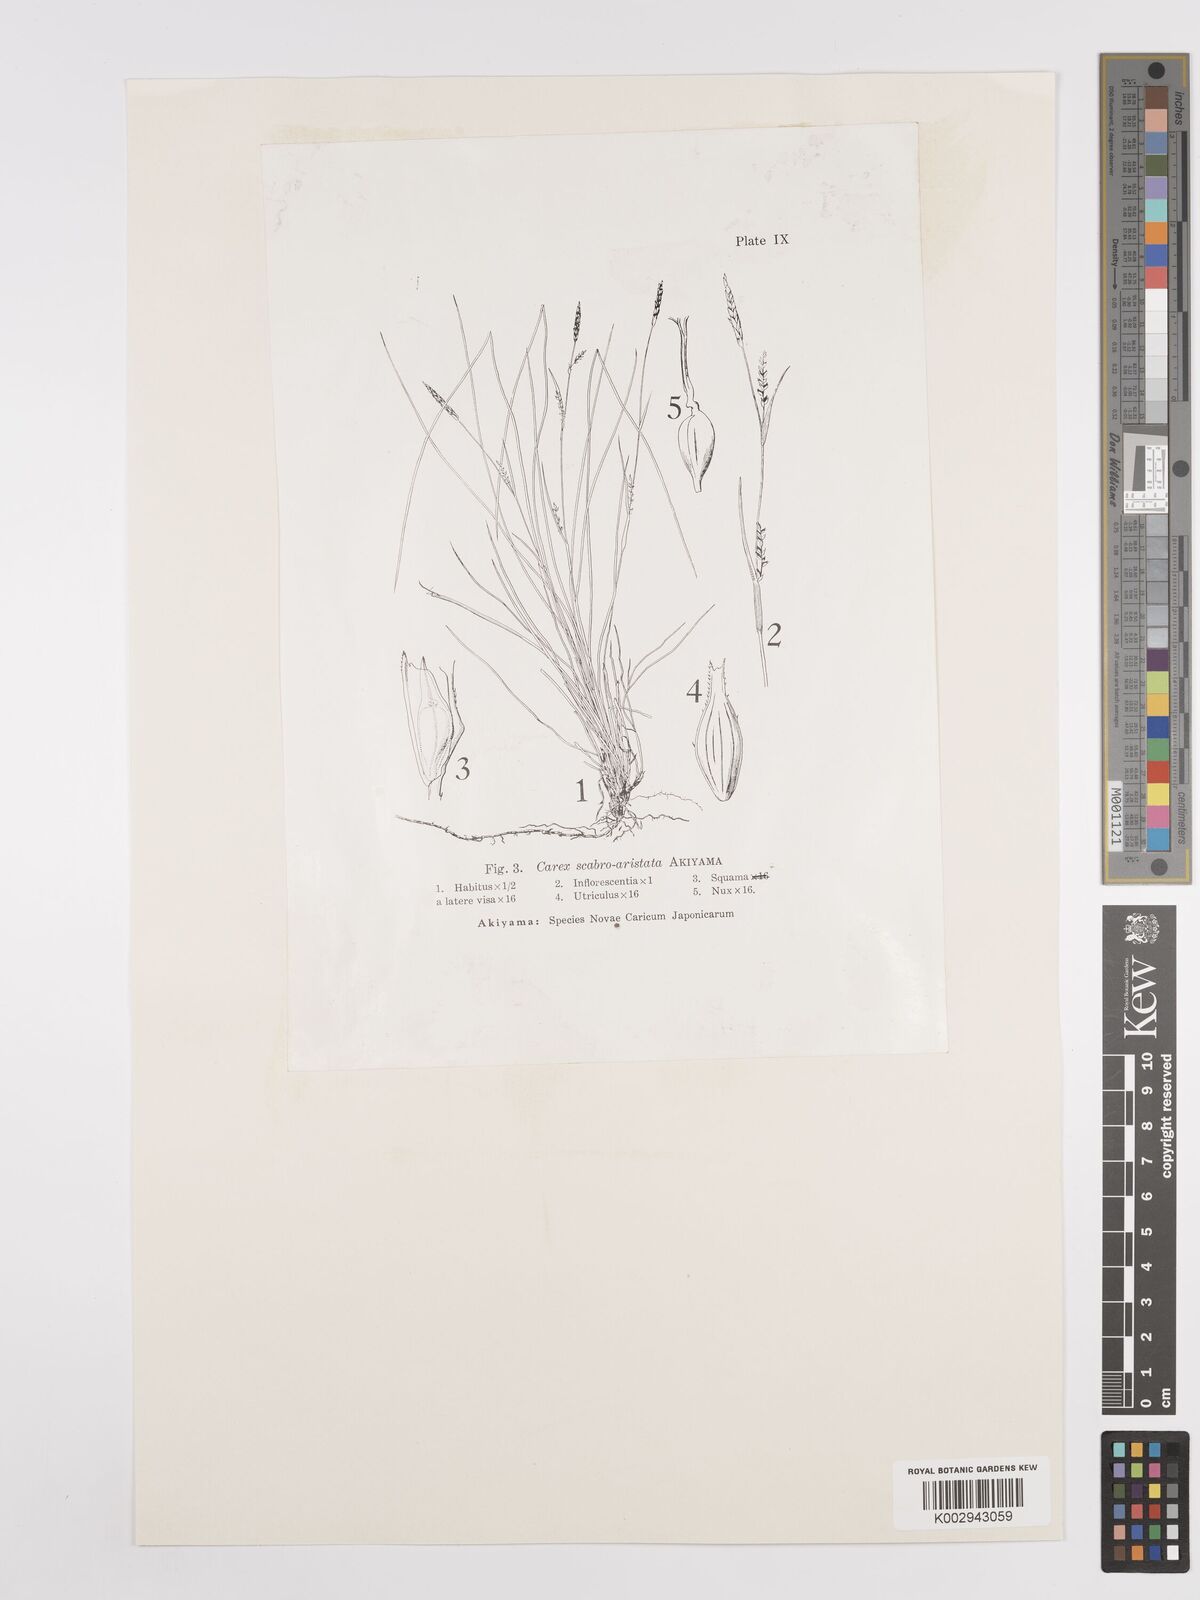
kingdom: Plantae
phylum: Tracheophyta
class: Liliopsida
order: Poales
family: Cyperaceae
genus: Carex
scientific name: Carex pisiformis
